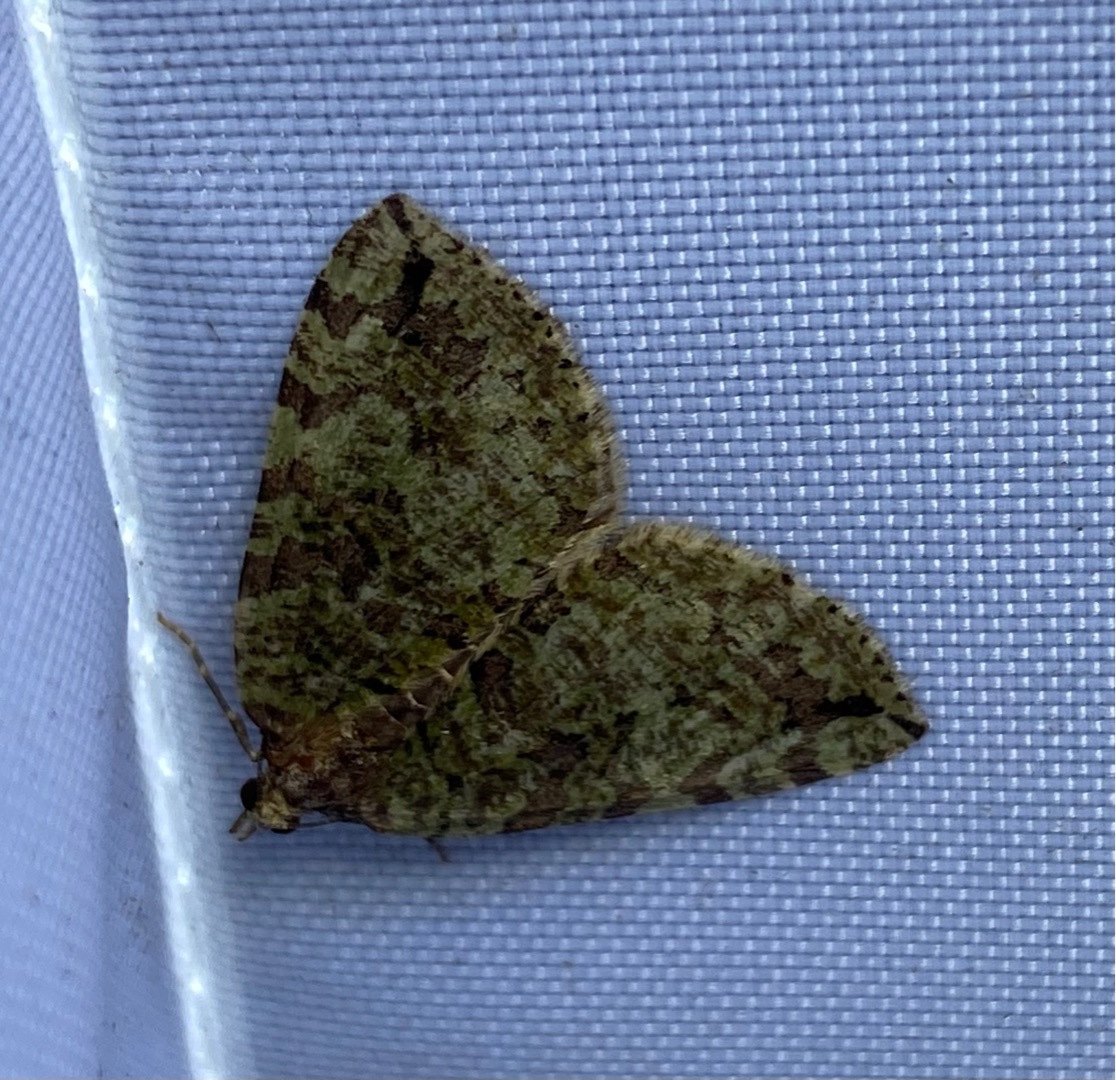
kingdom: Animalia
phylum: Arthropoda
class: Insecta
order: Lepidoptera
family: Geometridae
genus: Hydriomena
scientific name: Hydriomena furcata
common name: Vatret bladmåler
